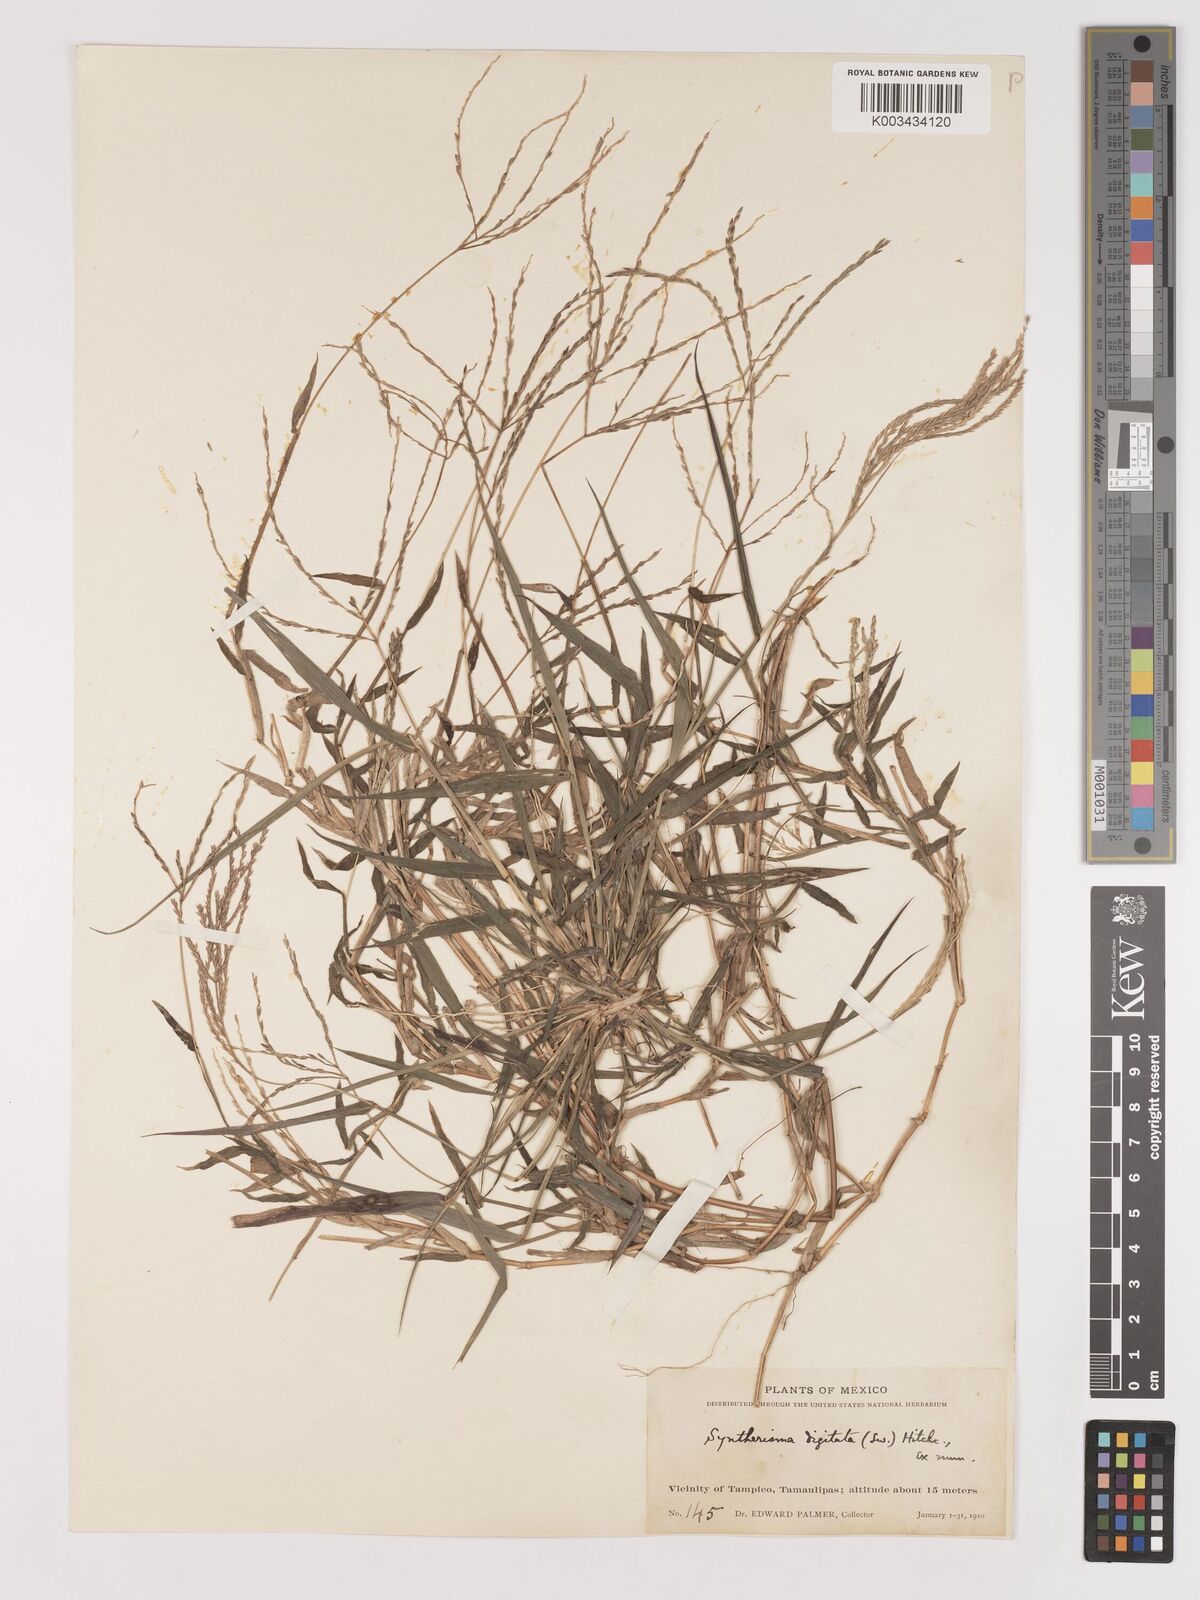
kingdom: Plantae
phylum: Tracheophyta
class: Liliopsida
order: Poales
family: Poaceae
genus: Digitaria
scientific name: Digitaria ciliaris
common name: Tropical finger-grass
